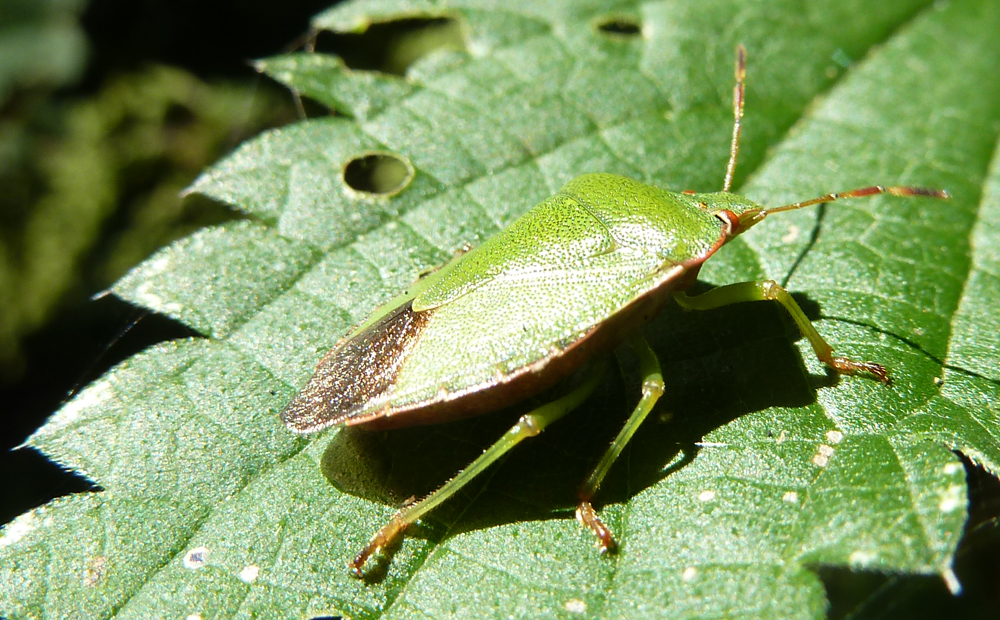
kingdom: Animalia
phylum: Arthropoda
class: Insecta
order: Hemiptera
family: Pentatomidae
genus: Palomena
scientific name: Palomena prasina
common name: Green shieldbug
